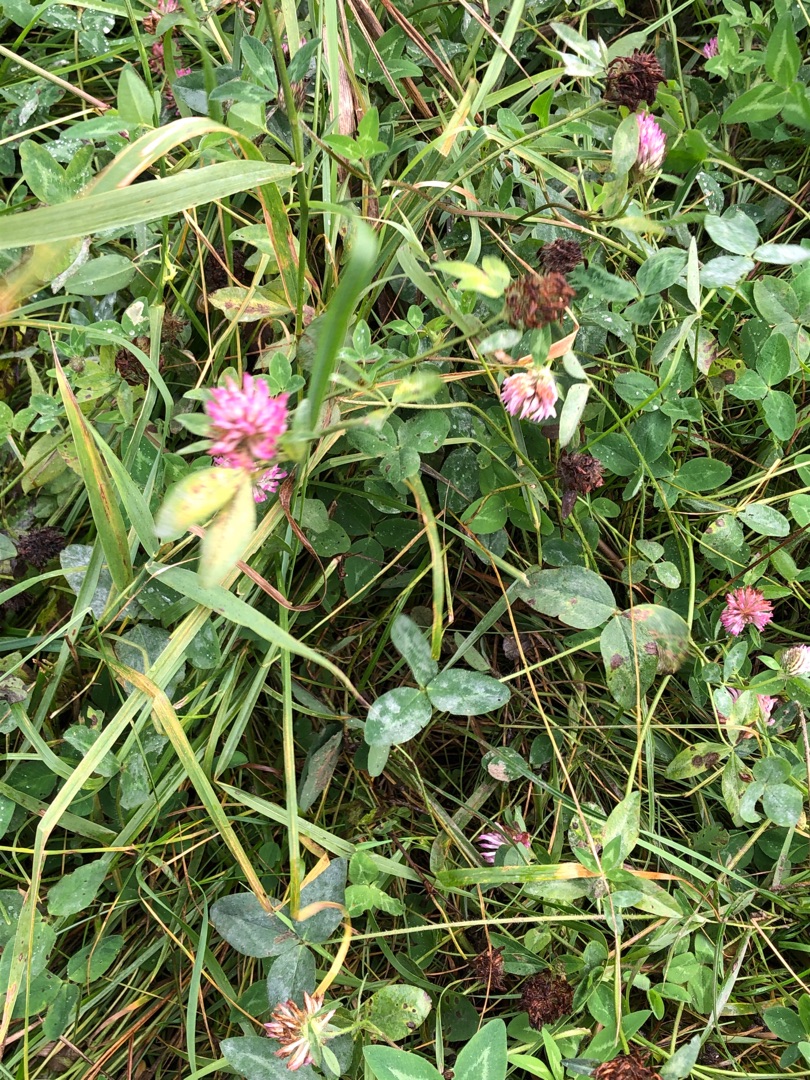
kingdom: Plantae
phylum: Tracheophyta
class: Magnoliopsida
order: Fabales
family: Fabaceae
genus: Trifolium
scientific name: Trifolium pratense
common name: Rød-kløver
